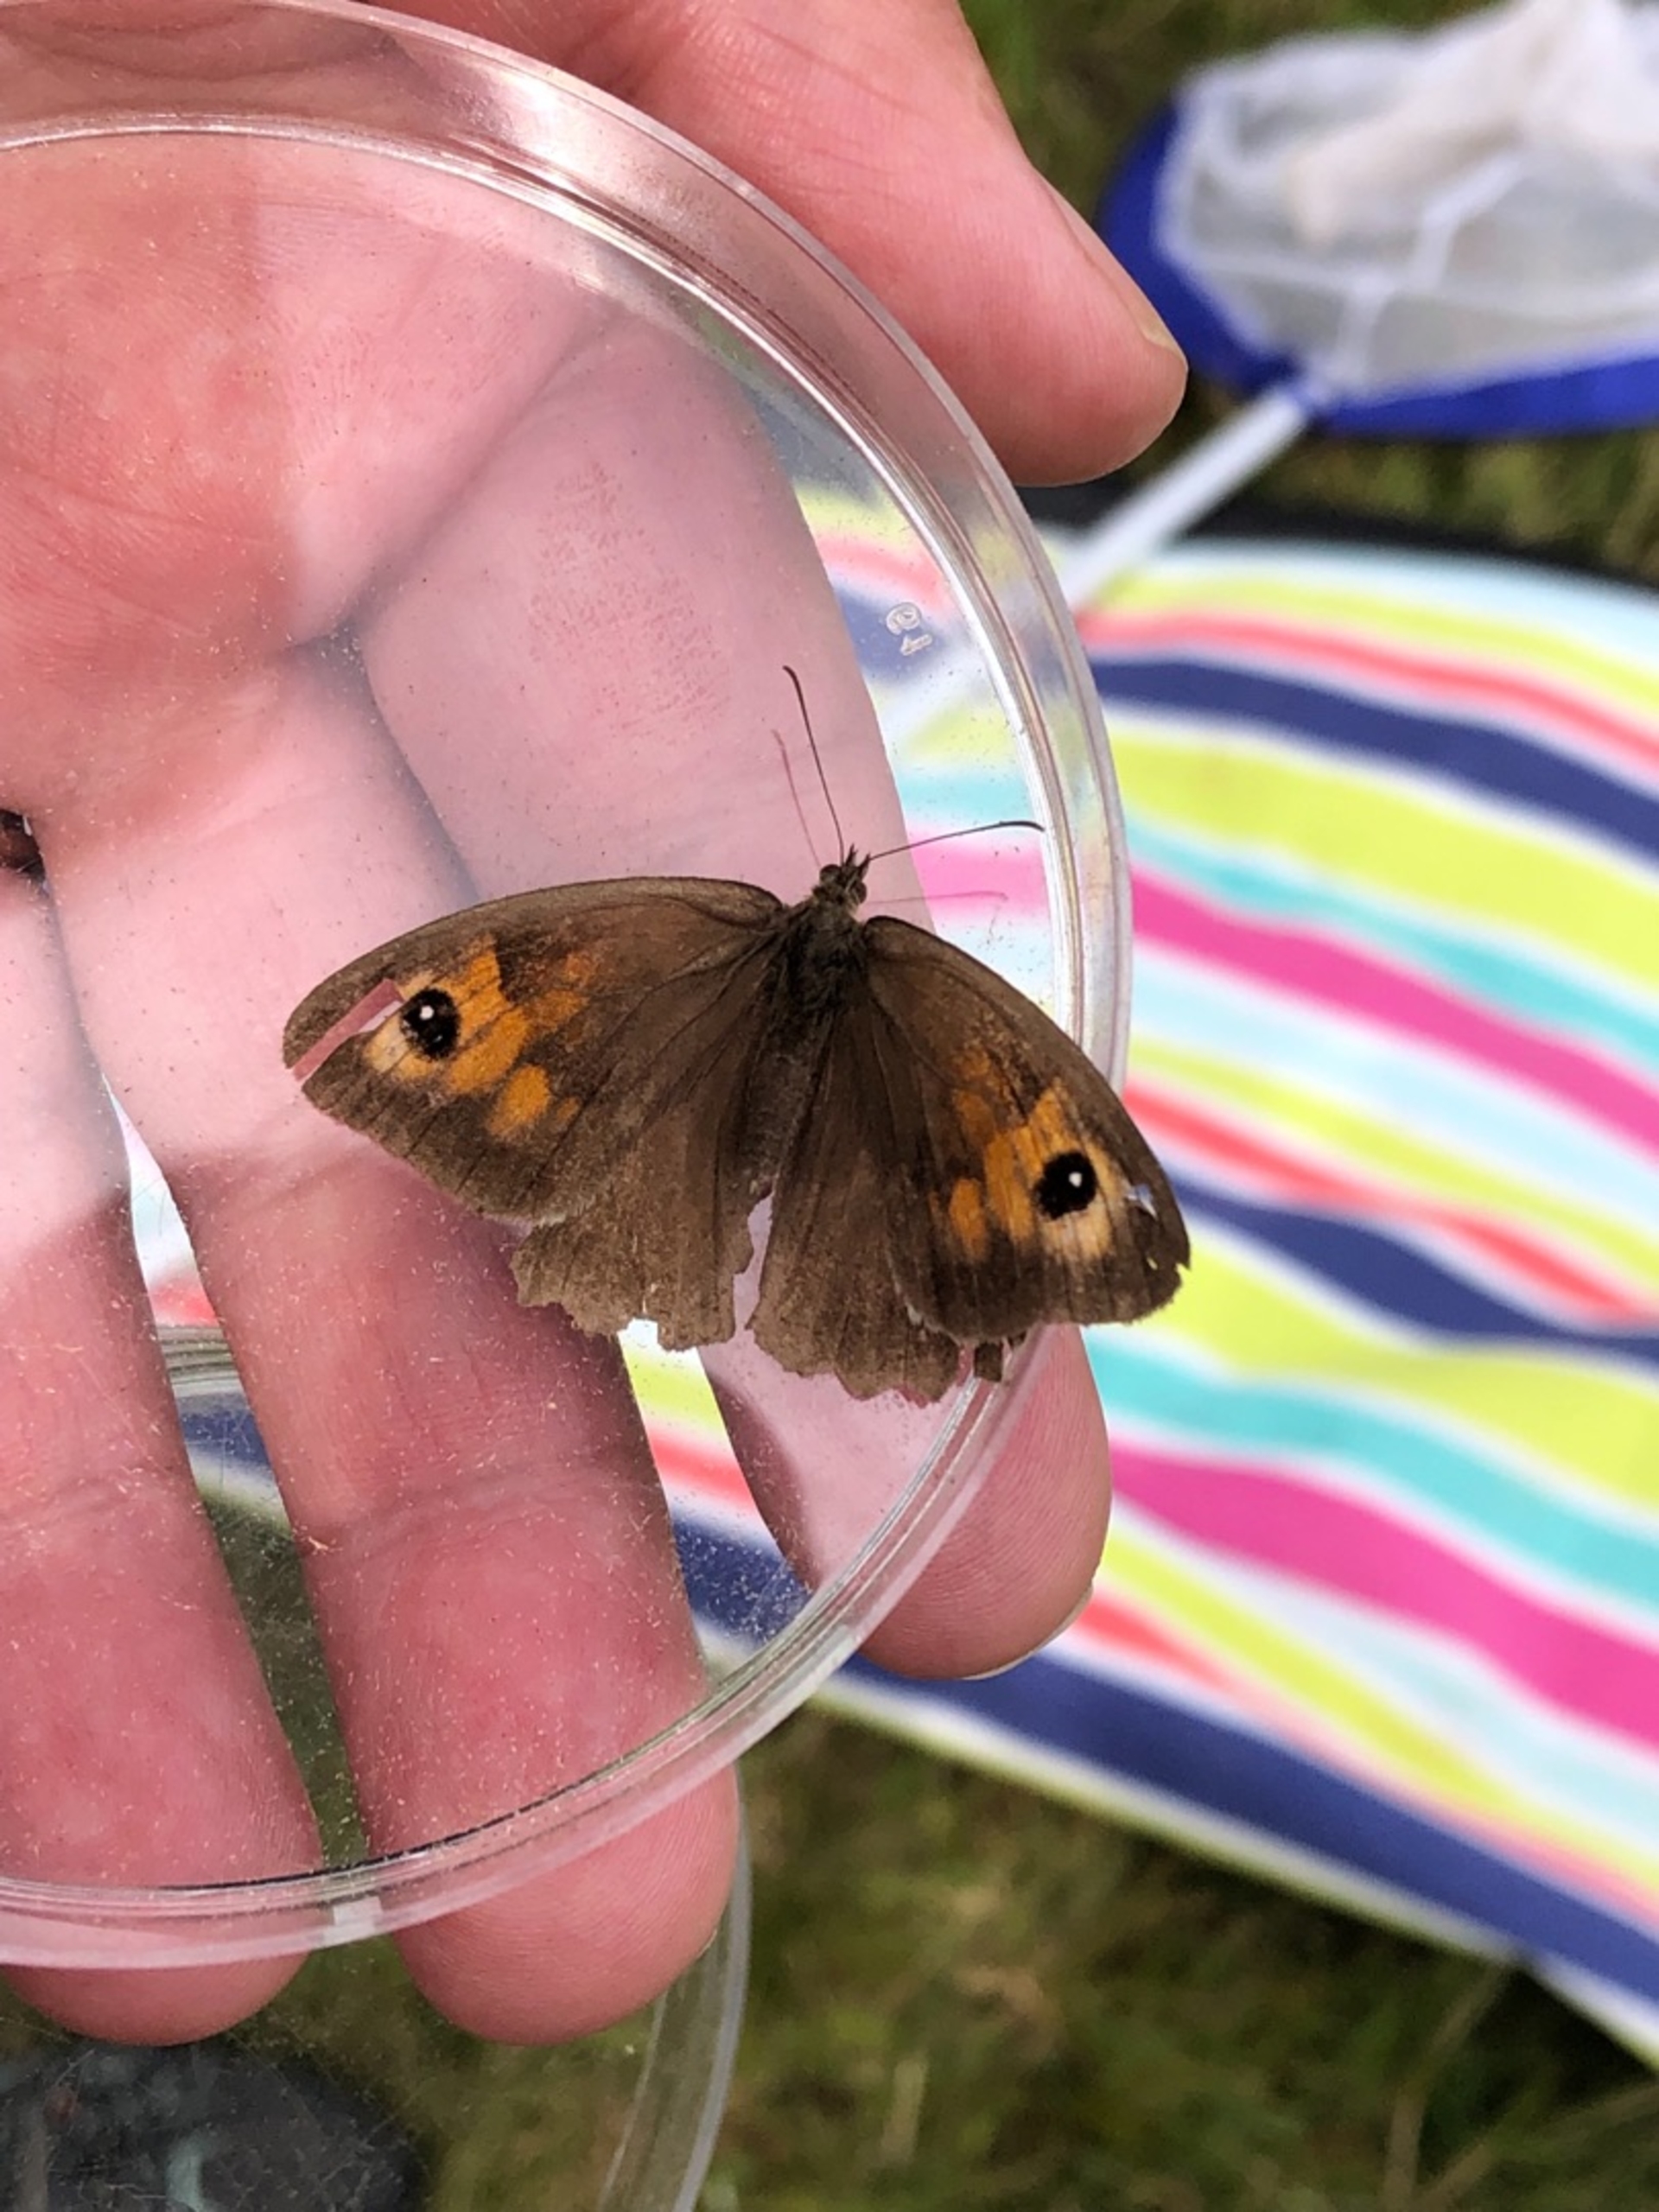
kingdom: Animalia
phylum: Arthropoda
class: Insecta
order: Lepidoptera
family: Nymphalidae
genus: Maniola
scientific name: Maniola jurtina
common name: Græsrandøje
